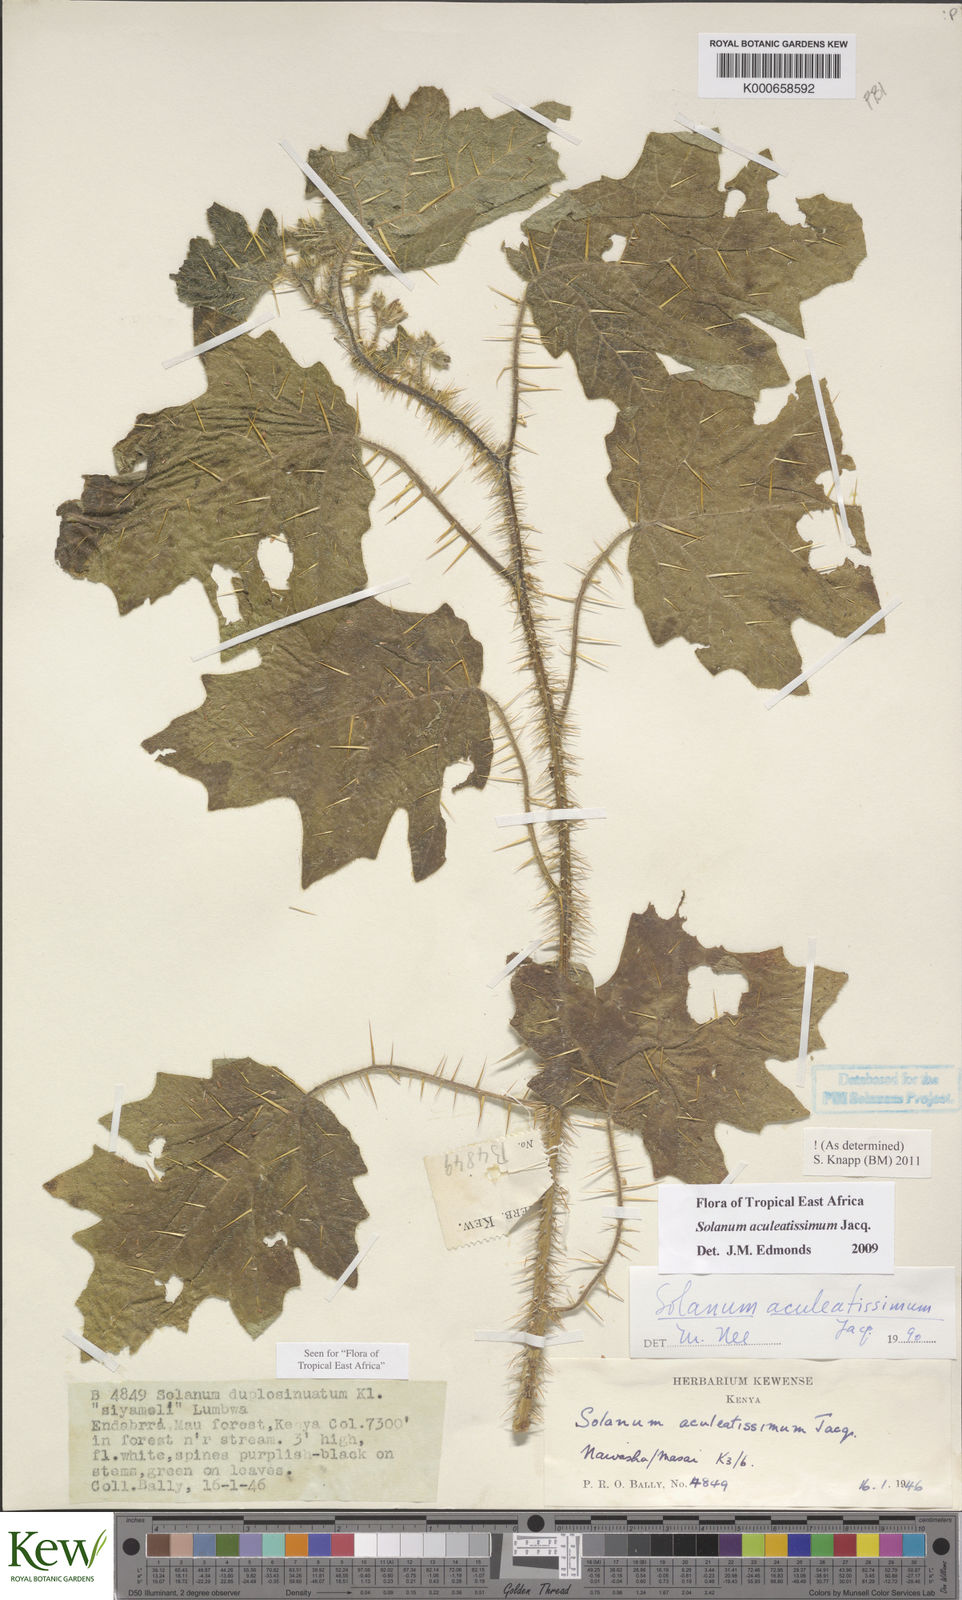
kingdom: Plantae
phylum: Tracheophyta
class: Magnoliopsida
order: Solanales
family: Solanaceae
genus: Solanum
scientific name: Solanum aculeatissimum
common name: Dutch eggplant
